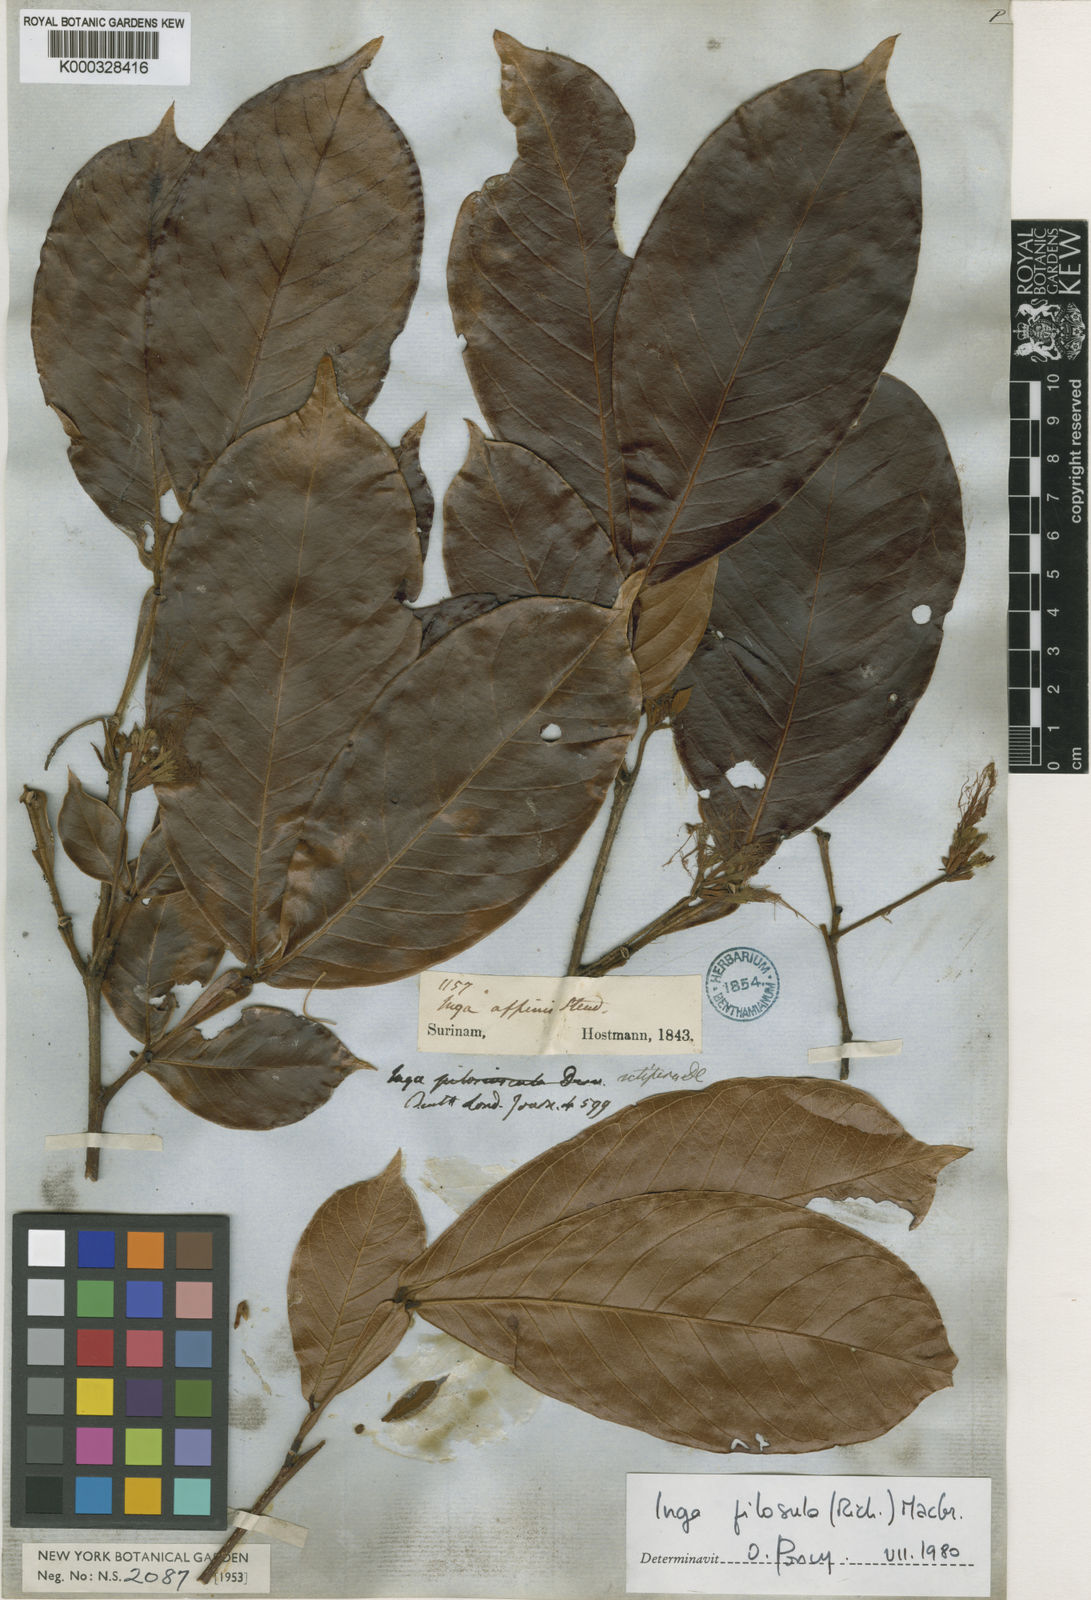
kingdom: Plantae
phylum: Tracheophyta
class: Magnoliopsida
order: Fabales
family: Fabaceae
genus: Inga
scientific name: Inga pilosula
